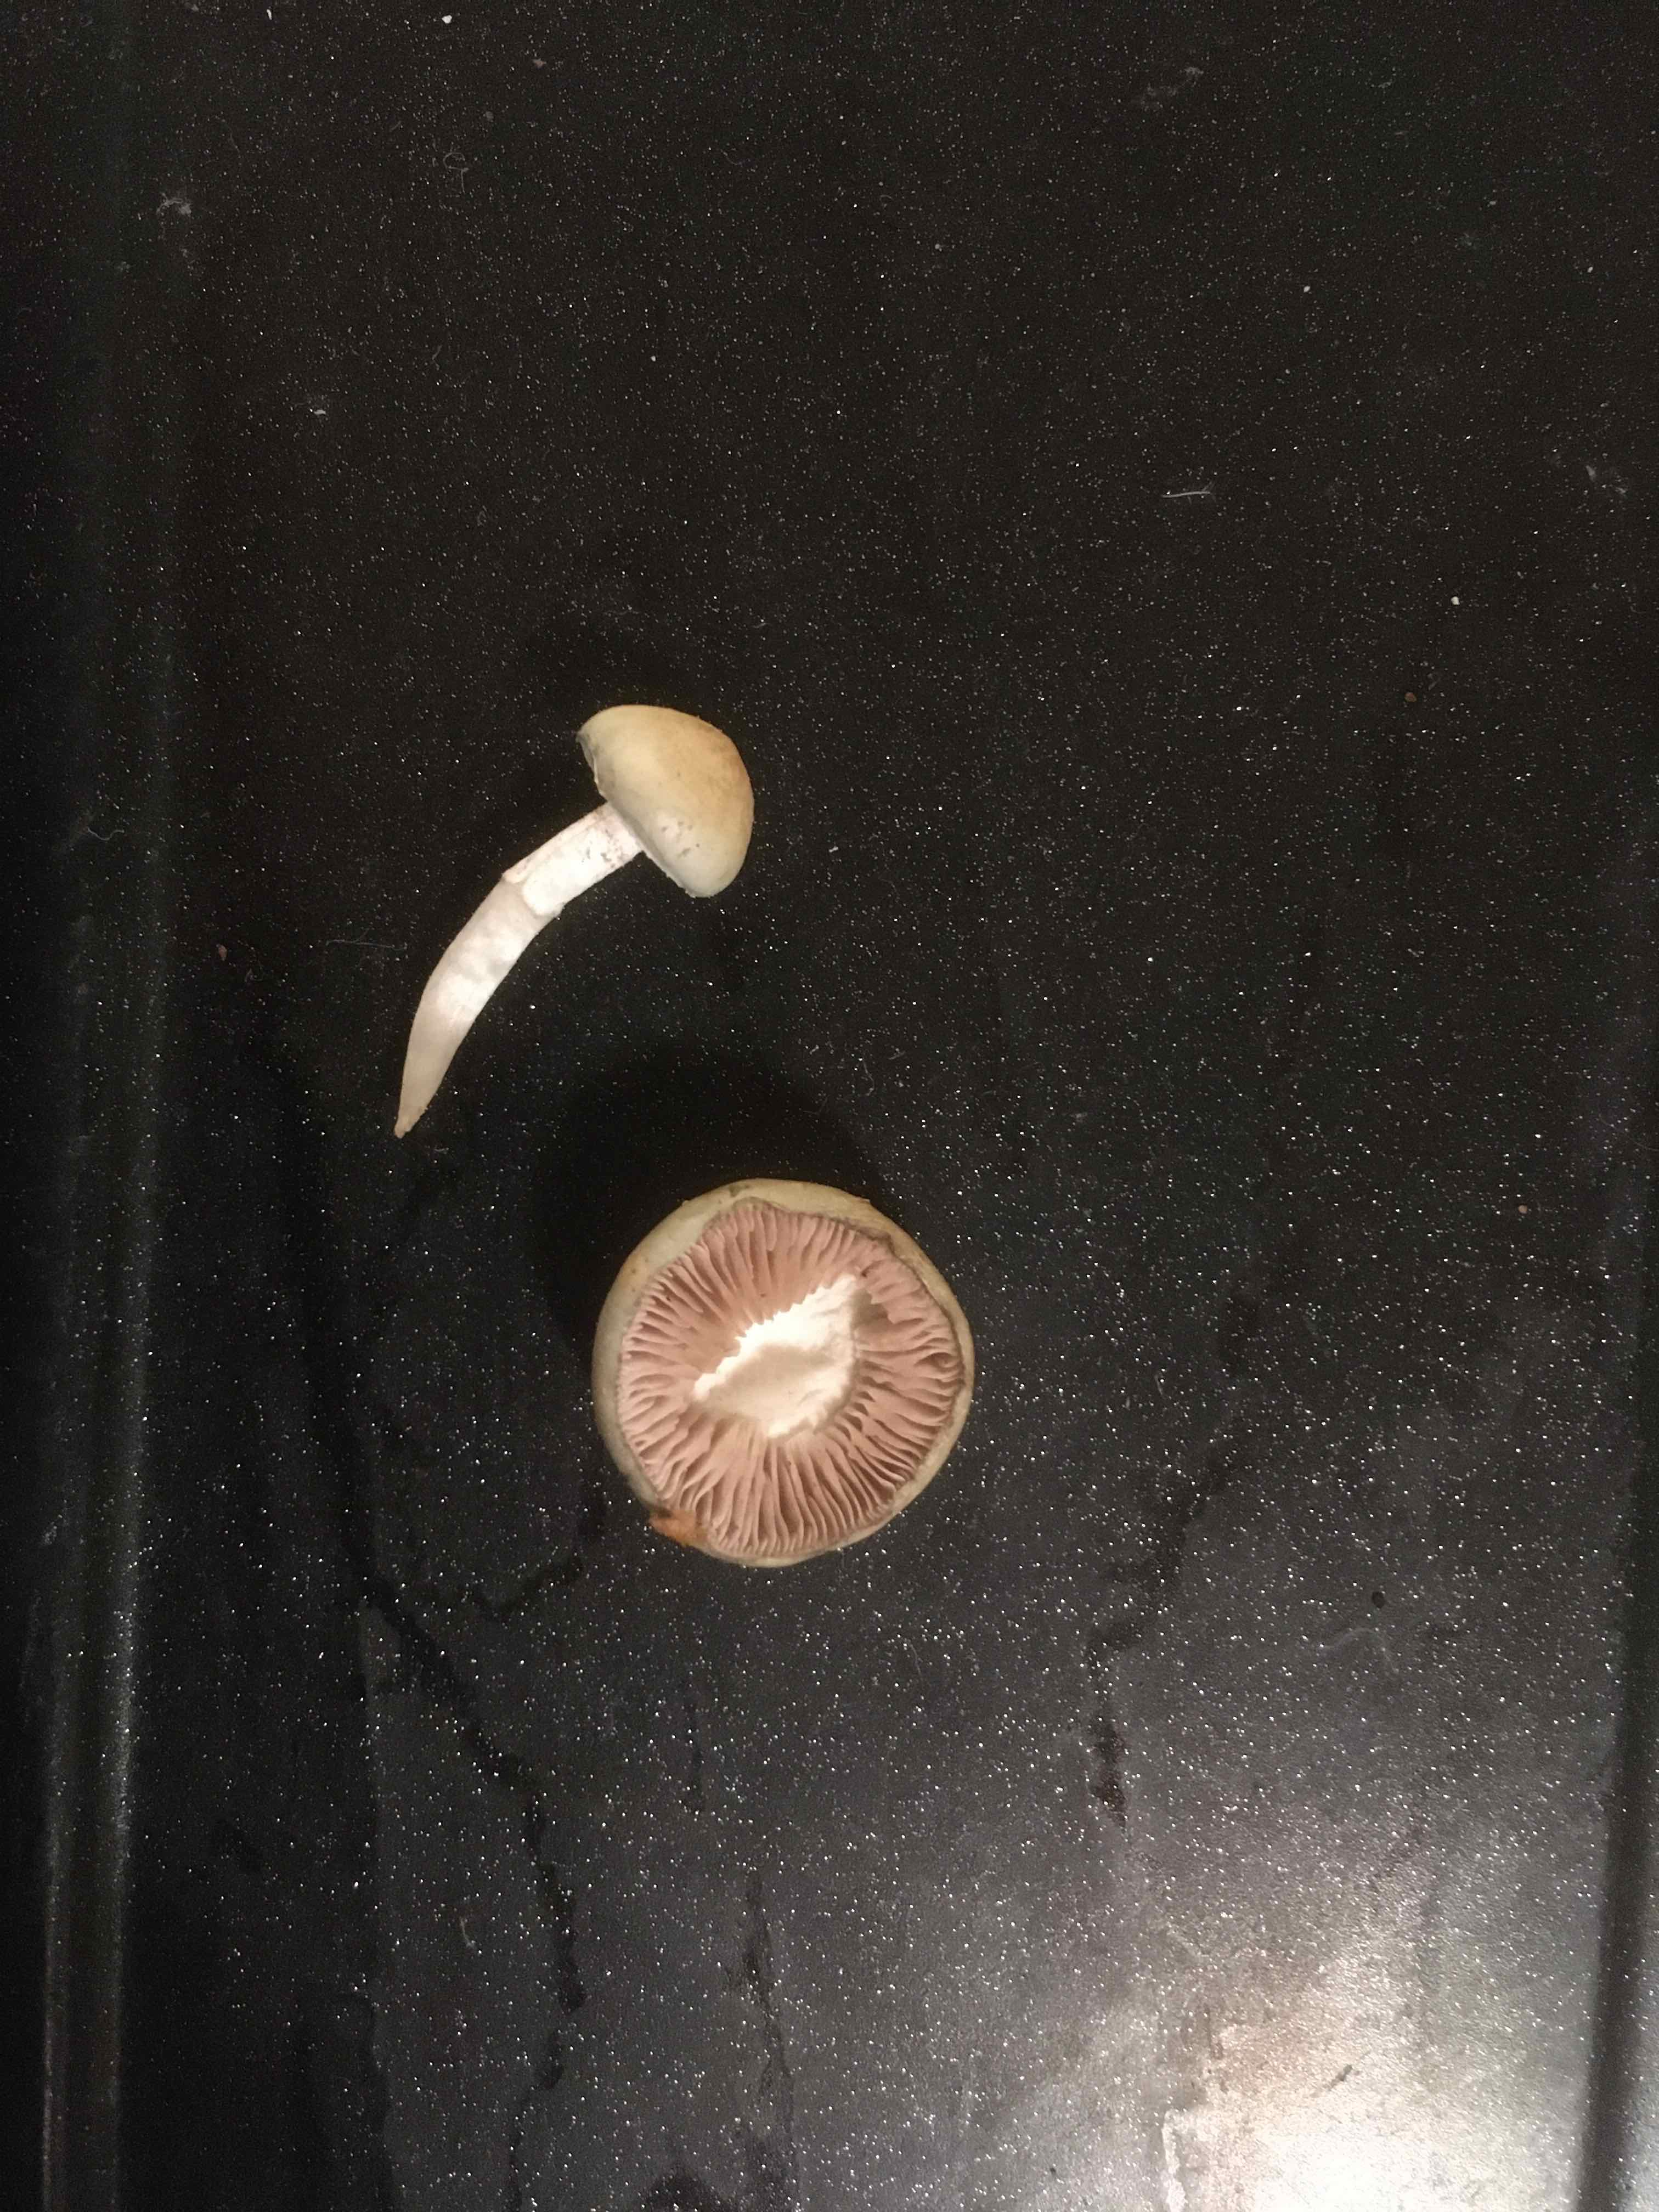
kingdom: Fungi
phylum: Basidiomycota
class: Agaricomycetes
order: Agaricales
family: Entolomataceae
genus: Entoloma
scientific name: Entoloma
